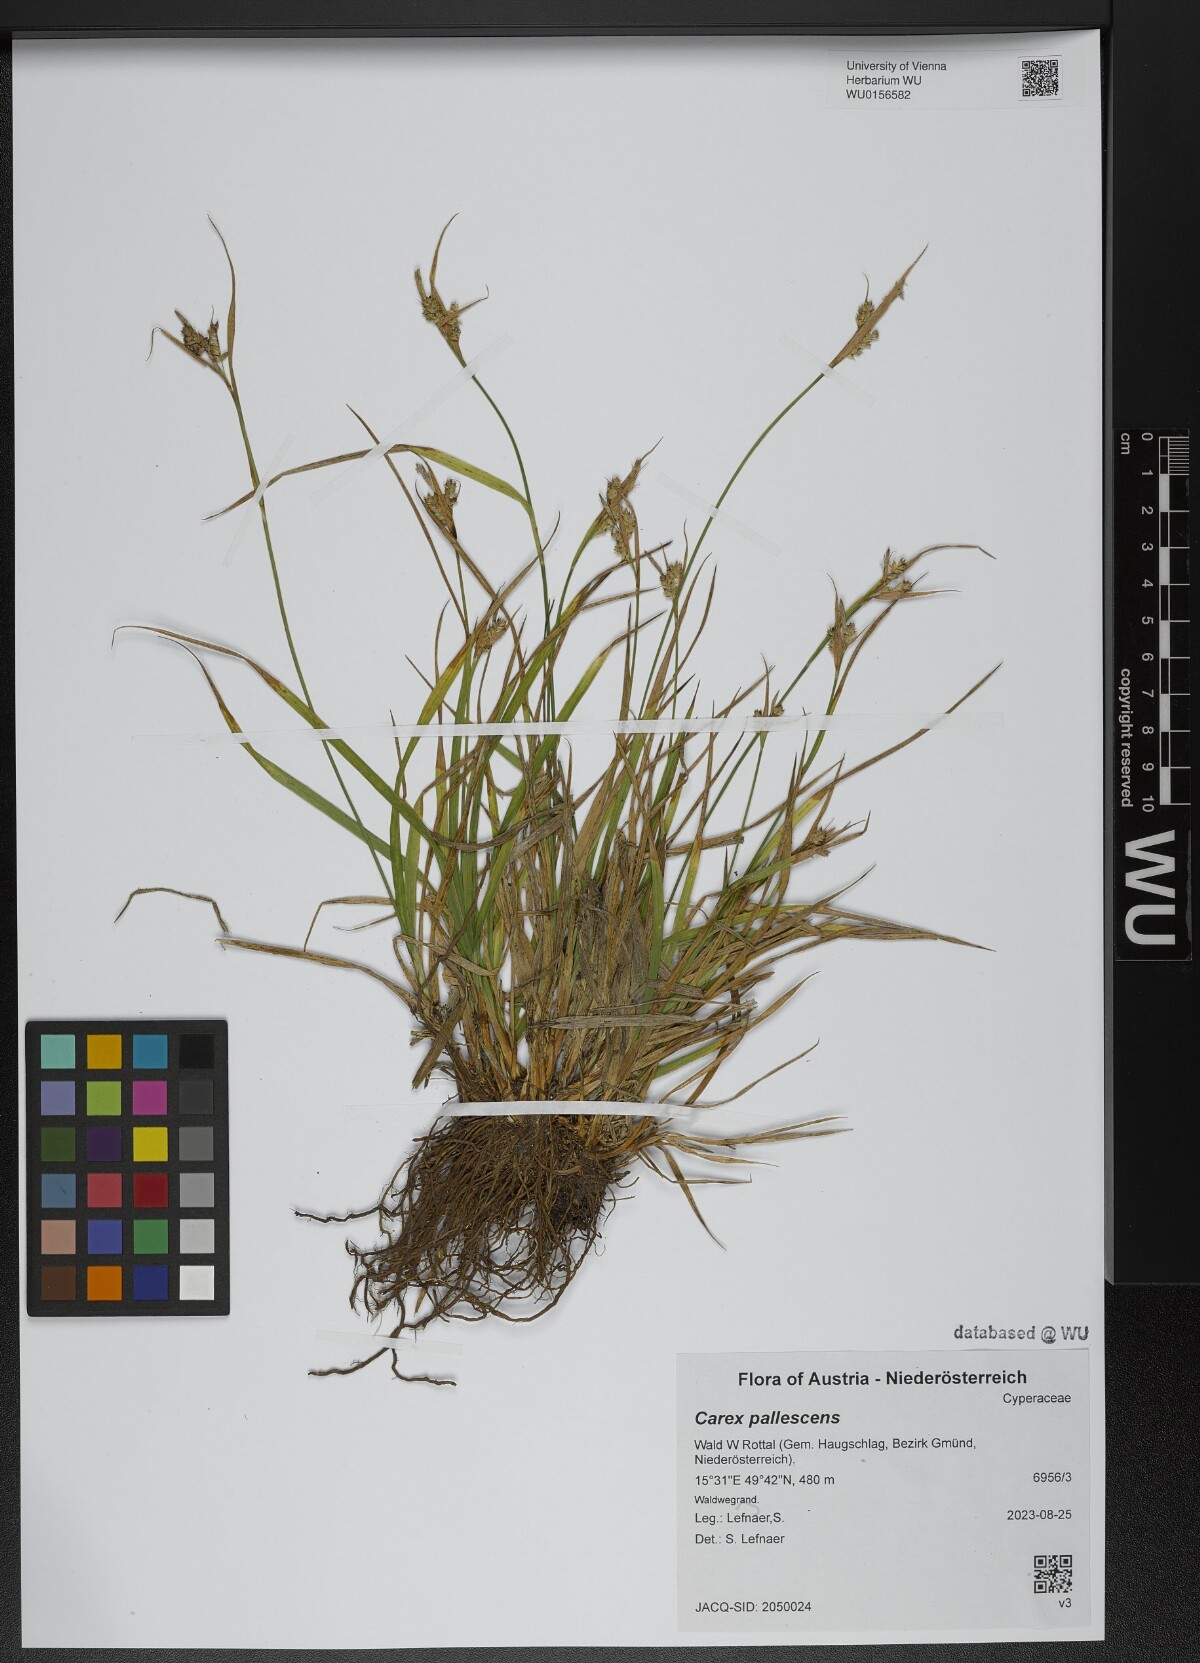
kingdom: Plantae
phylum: Tracheophyta
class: Liliopsida
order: Poales
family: Cyperaceae
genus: Carex
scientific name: Carex pallescens
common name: Pale sedge
